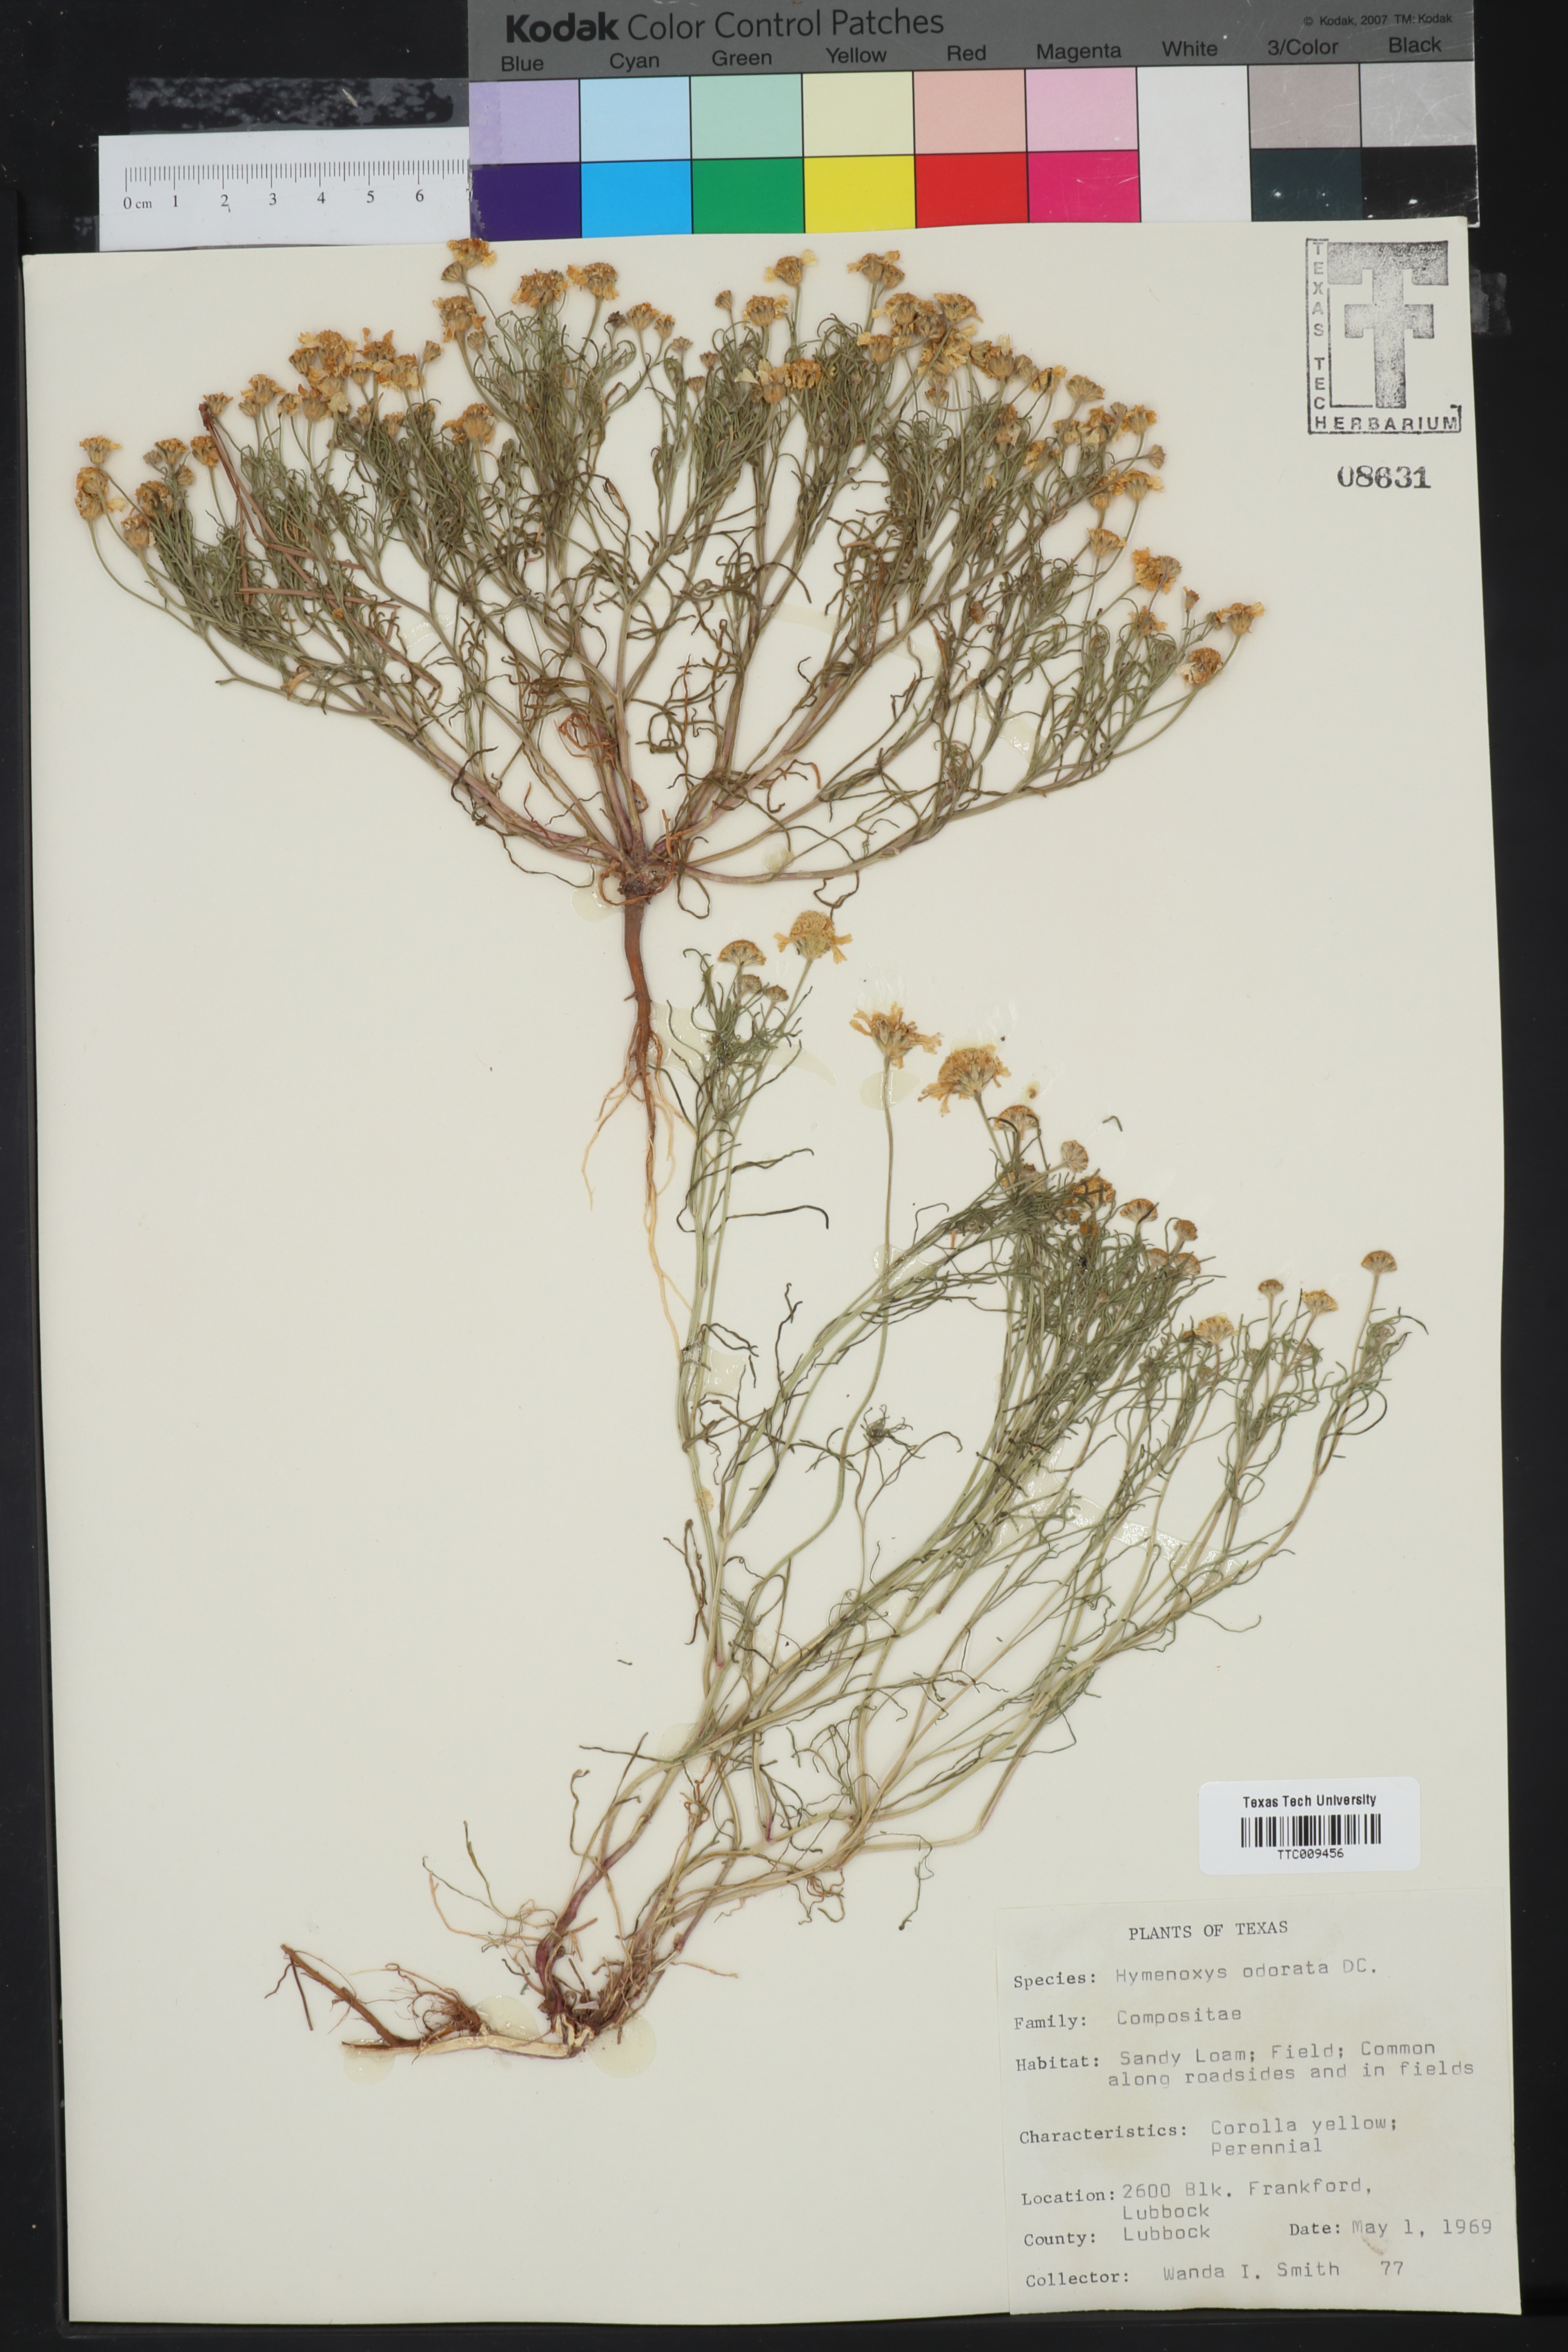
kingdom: Plantae
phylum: Tracheophyta
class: Magnoliopsida
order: Asterales
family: Asteraceae
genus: Hymenoxys
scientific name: Hymenoxys odorata
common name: Bitter rubberweed
